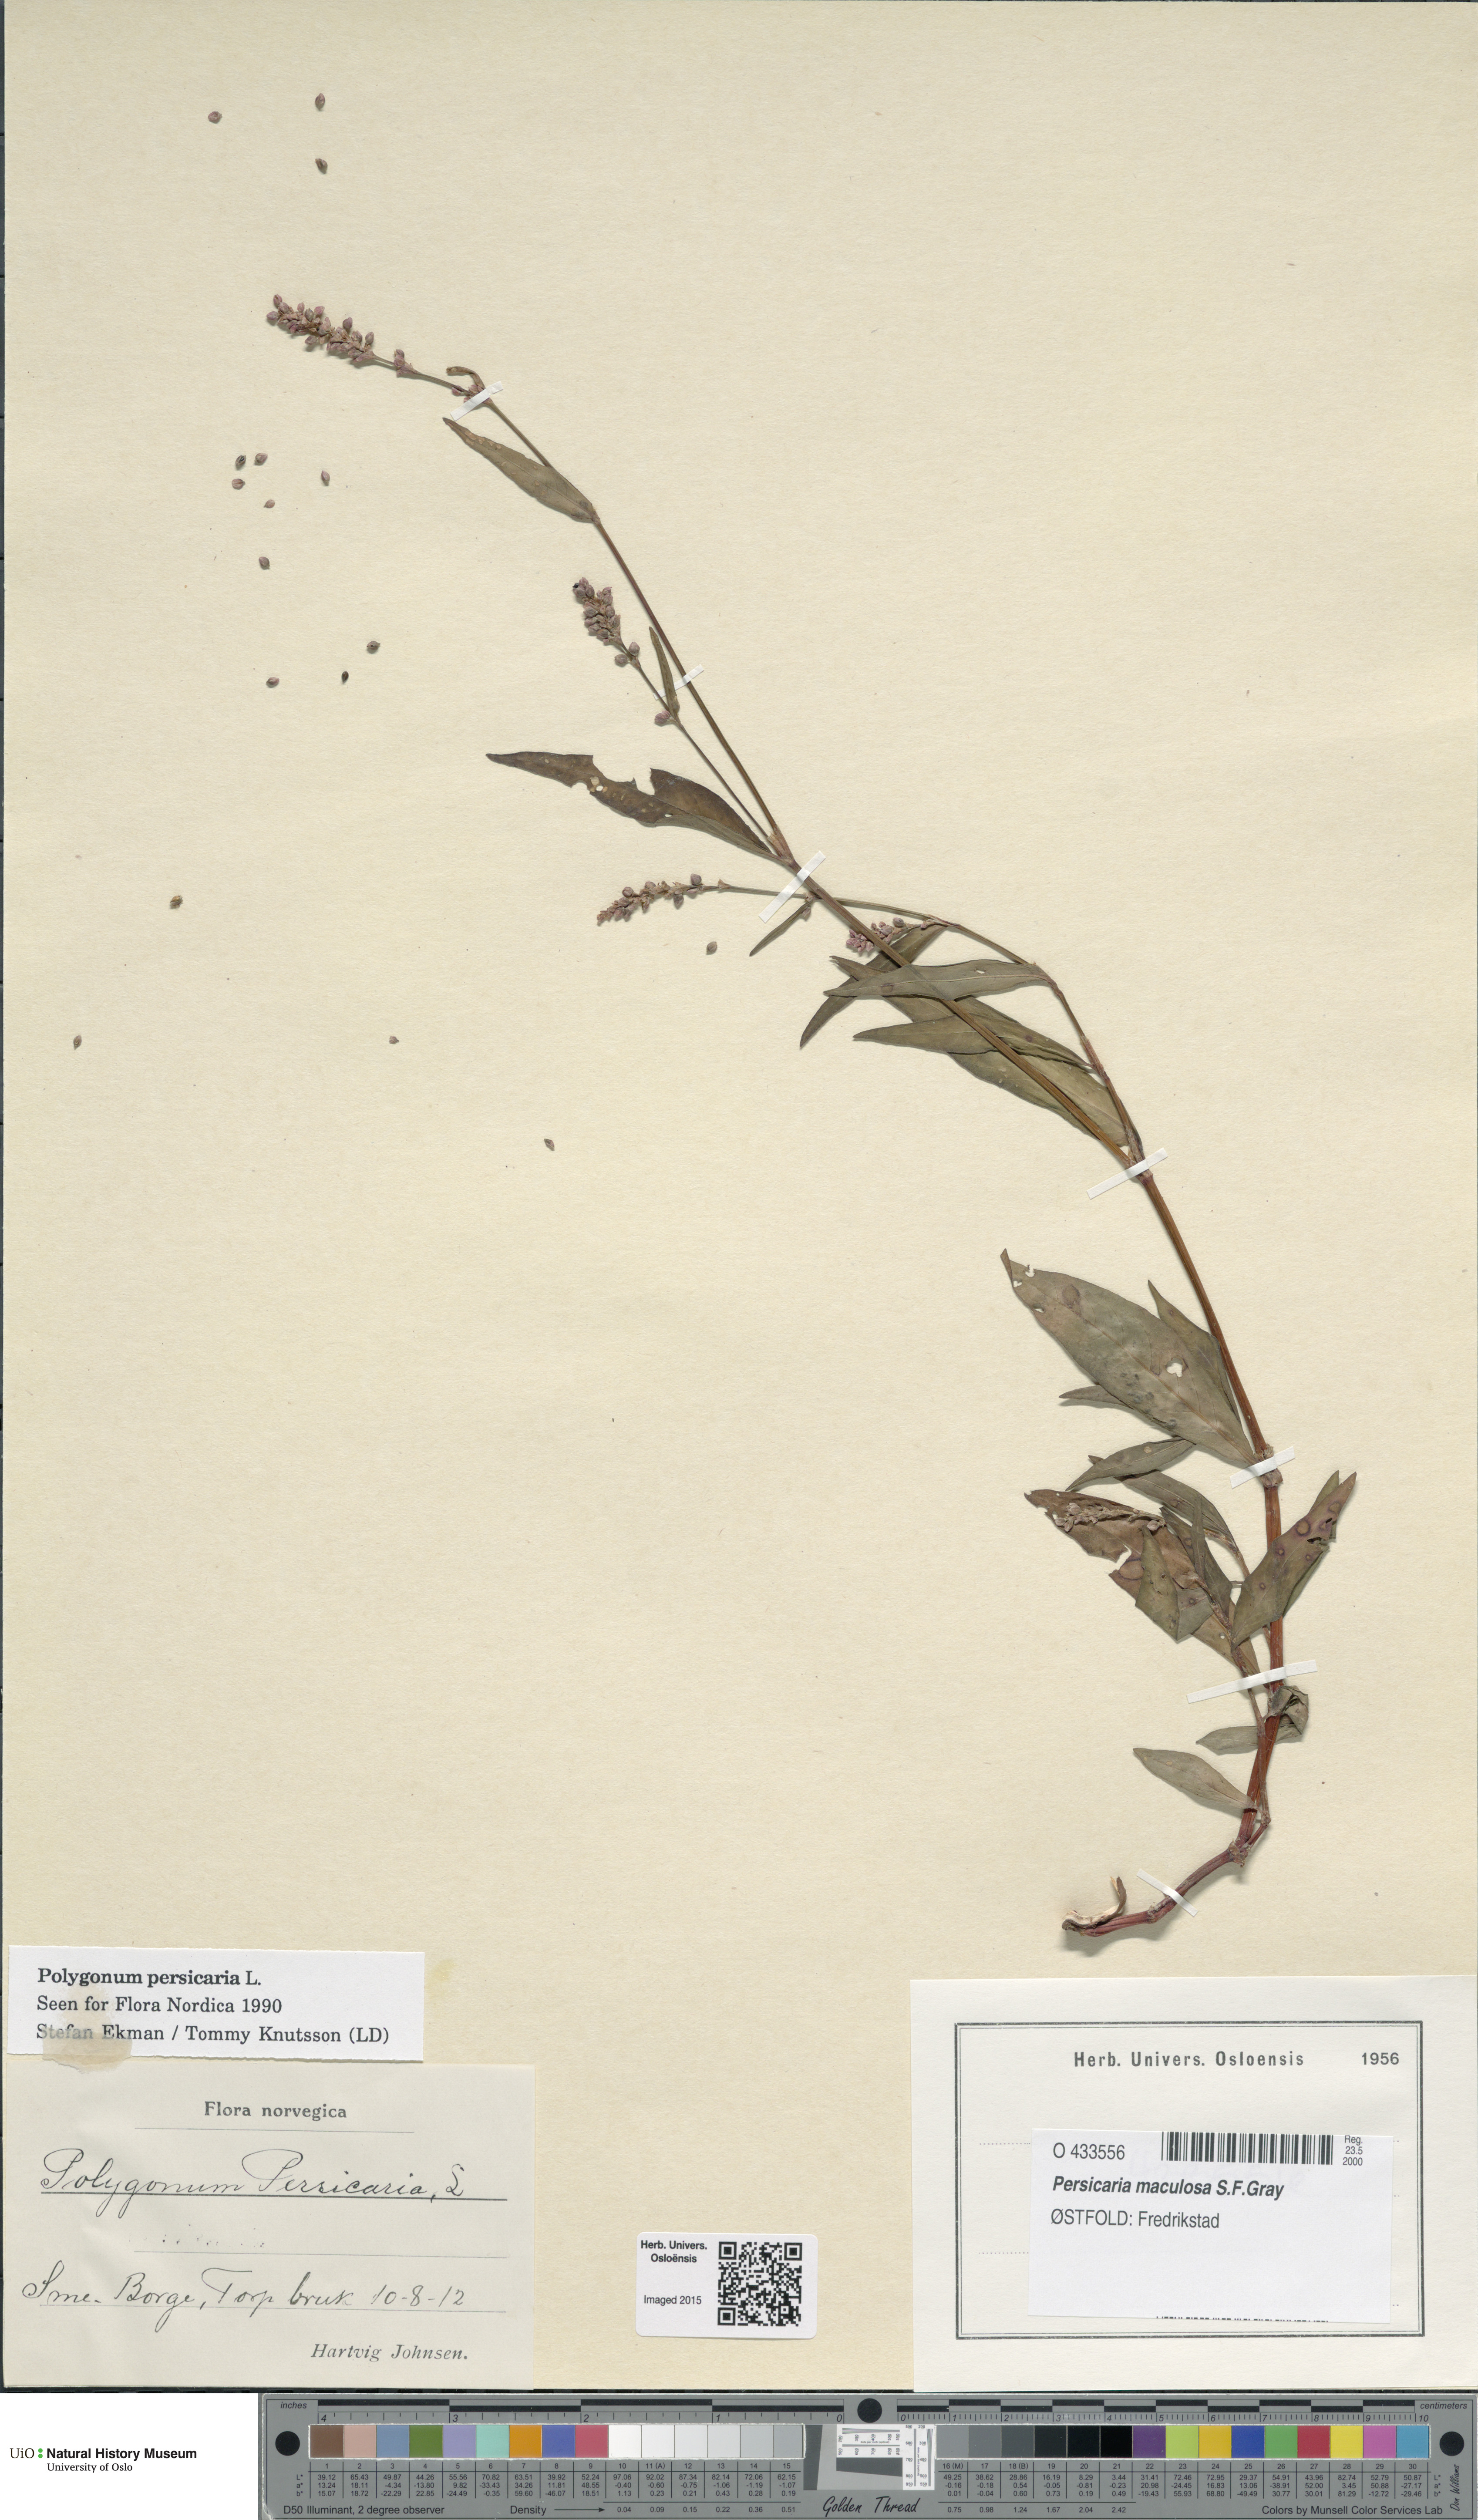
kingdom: Plantae
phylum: Tracheophyta
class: Magnoliopsida
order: Caryophyllales
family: Polygonaceae
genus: Persicaria
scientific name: Persicaria maculosa
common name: Redshank
